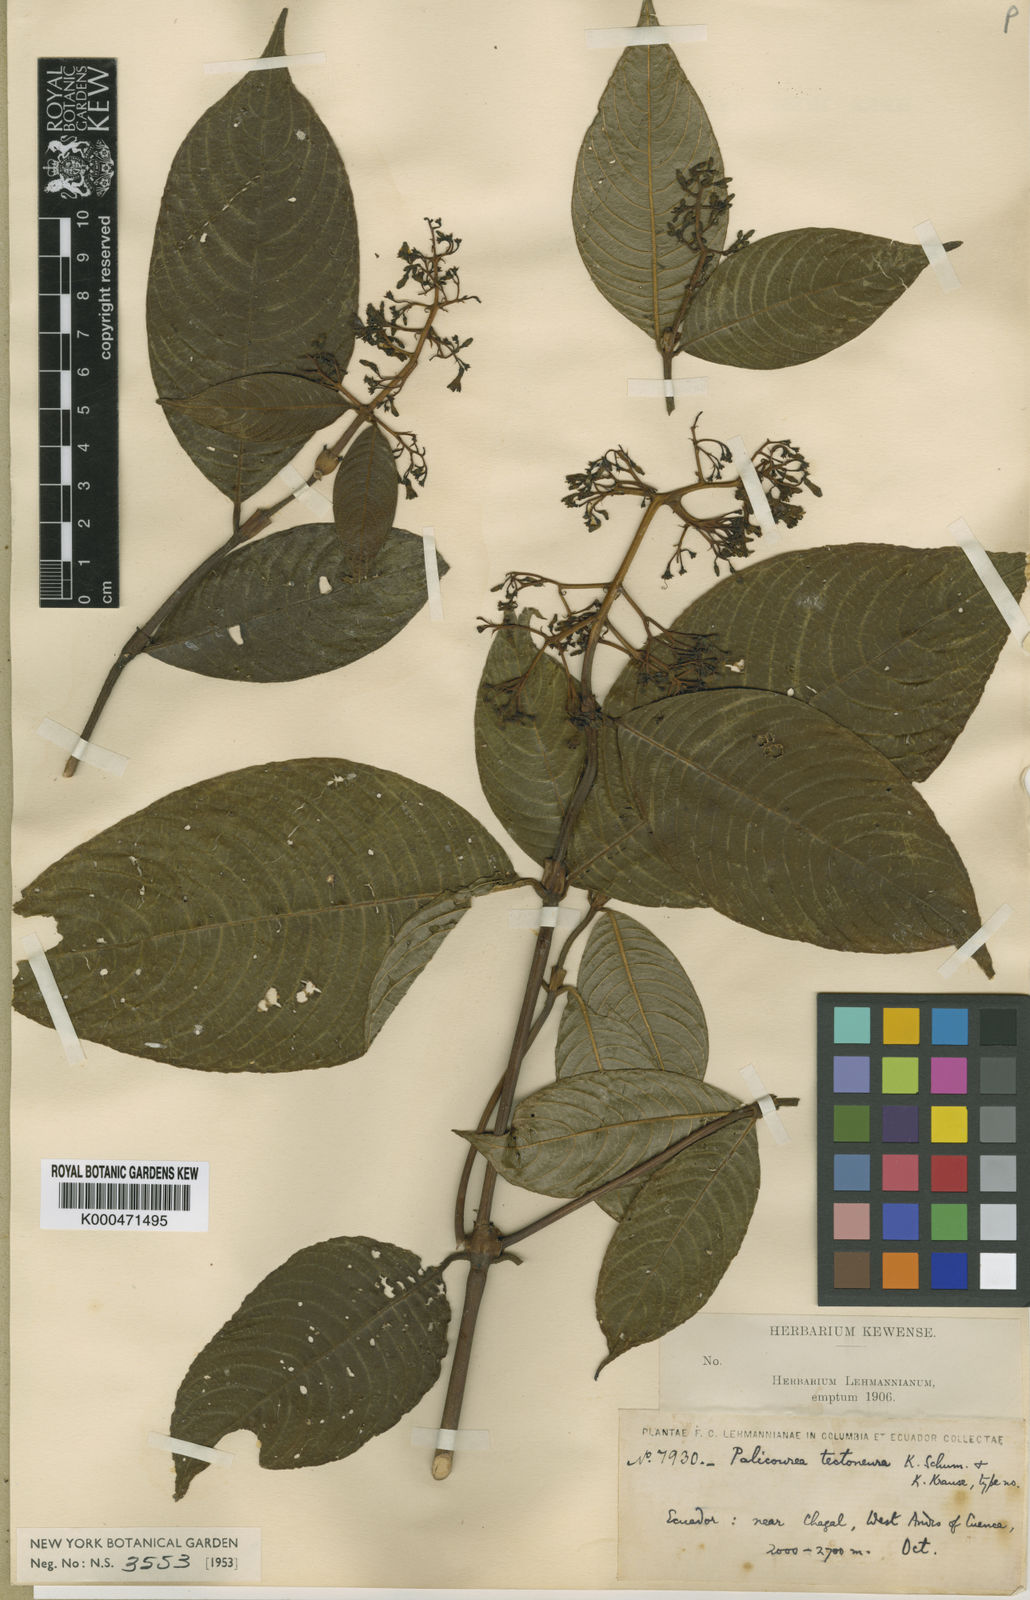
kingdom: Plantae
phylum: Tracheophyta
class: Magnoliopsida
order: Gentianales
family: Rubiaceae
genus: Palicourea
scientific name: Palicourea tectoneura
